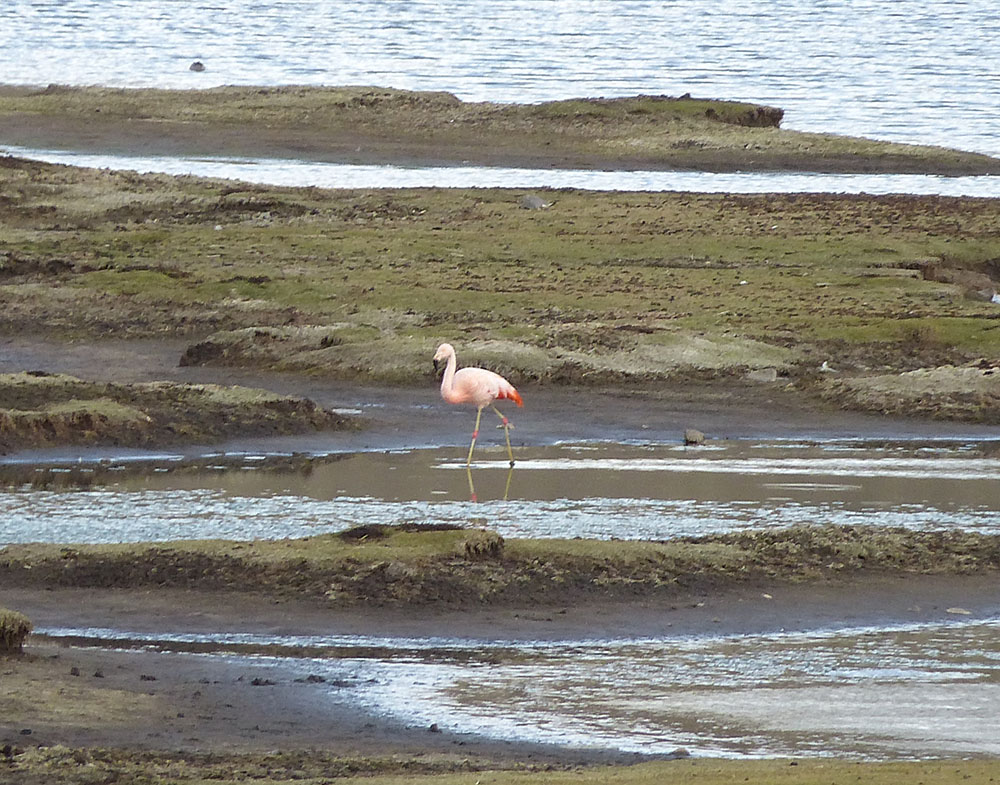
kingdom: Animalia
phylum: Chordata
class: Aves
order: Phoenicopteriformes
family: Phoenicopteridae
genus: Phoenicopterus
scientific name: Phoenicopterus chilensis
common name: Chilean flamingo
